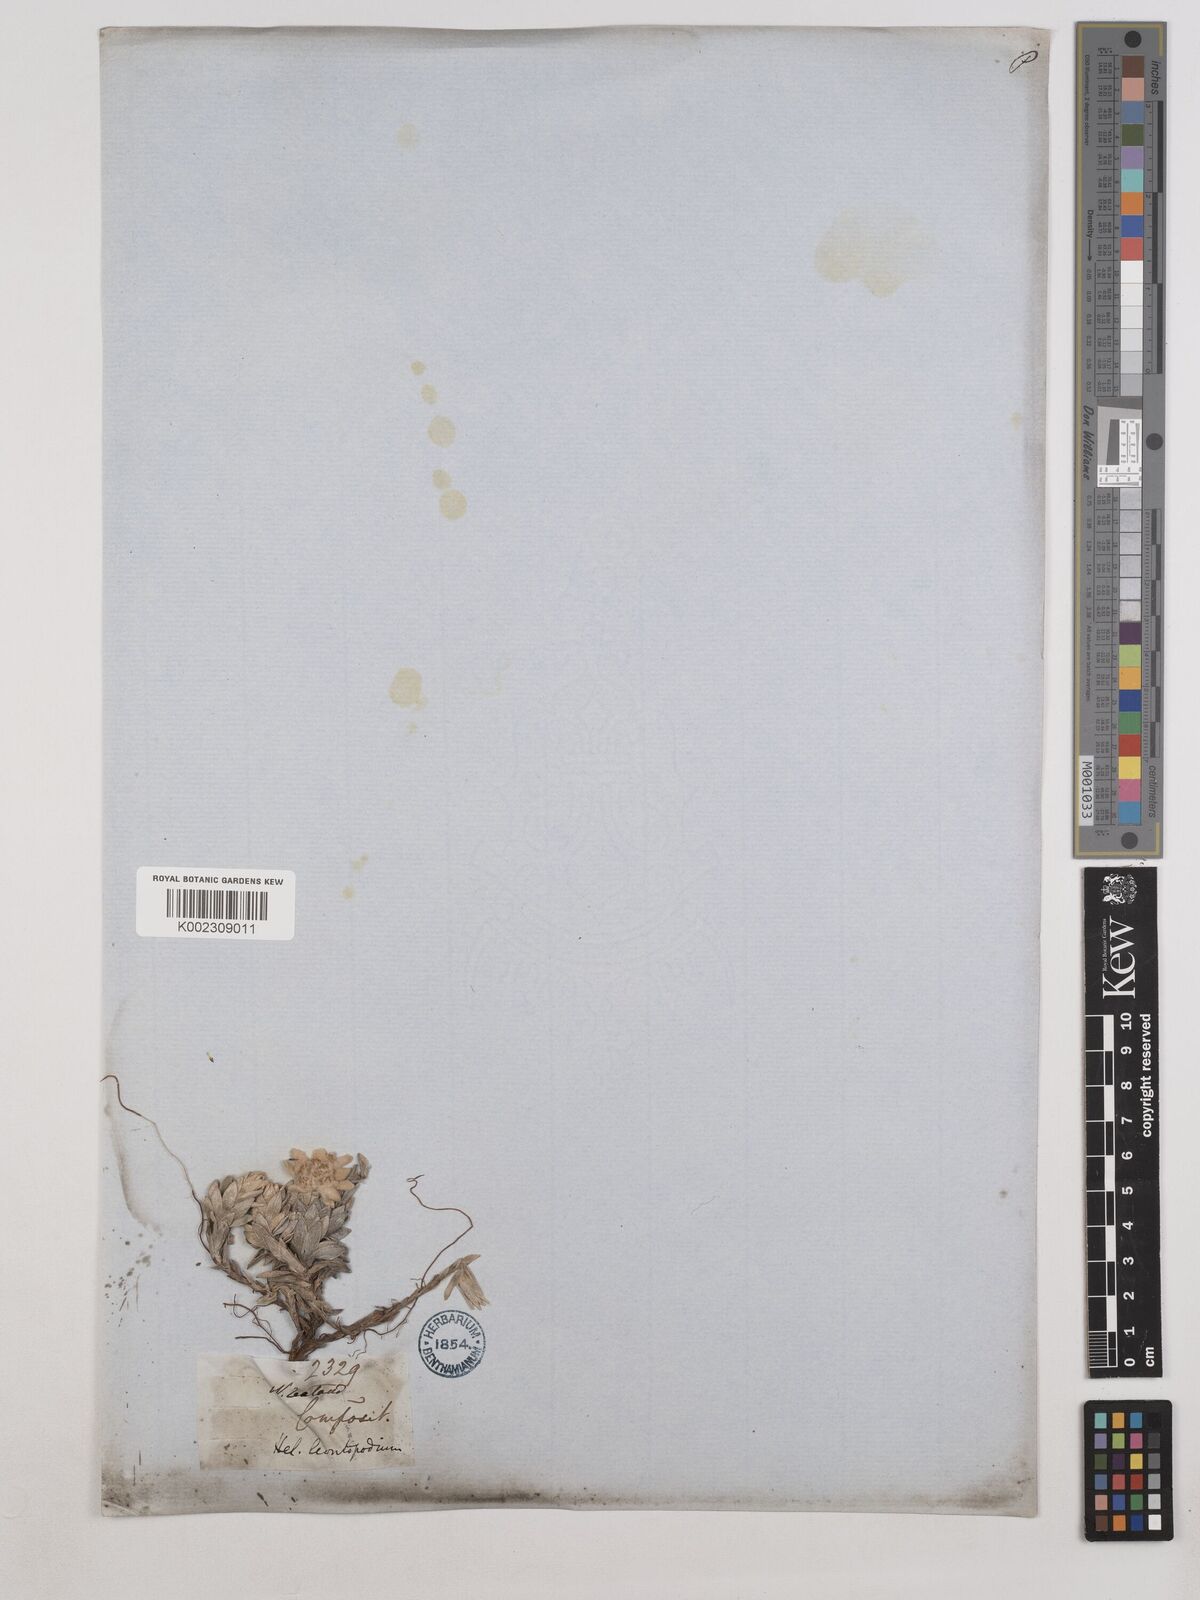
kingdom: Plantae
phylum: Tracheophyta
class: Magnoliopsida
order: Asterales
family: Asteraceae
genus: Leucogenes
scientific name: Leucogenes leontopodium
